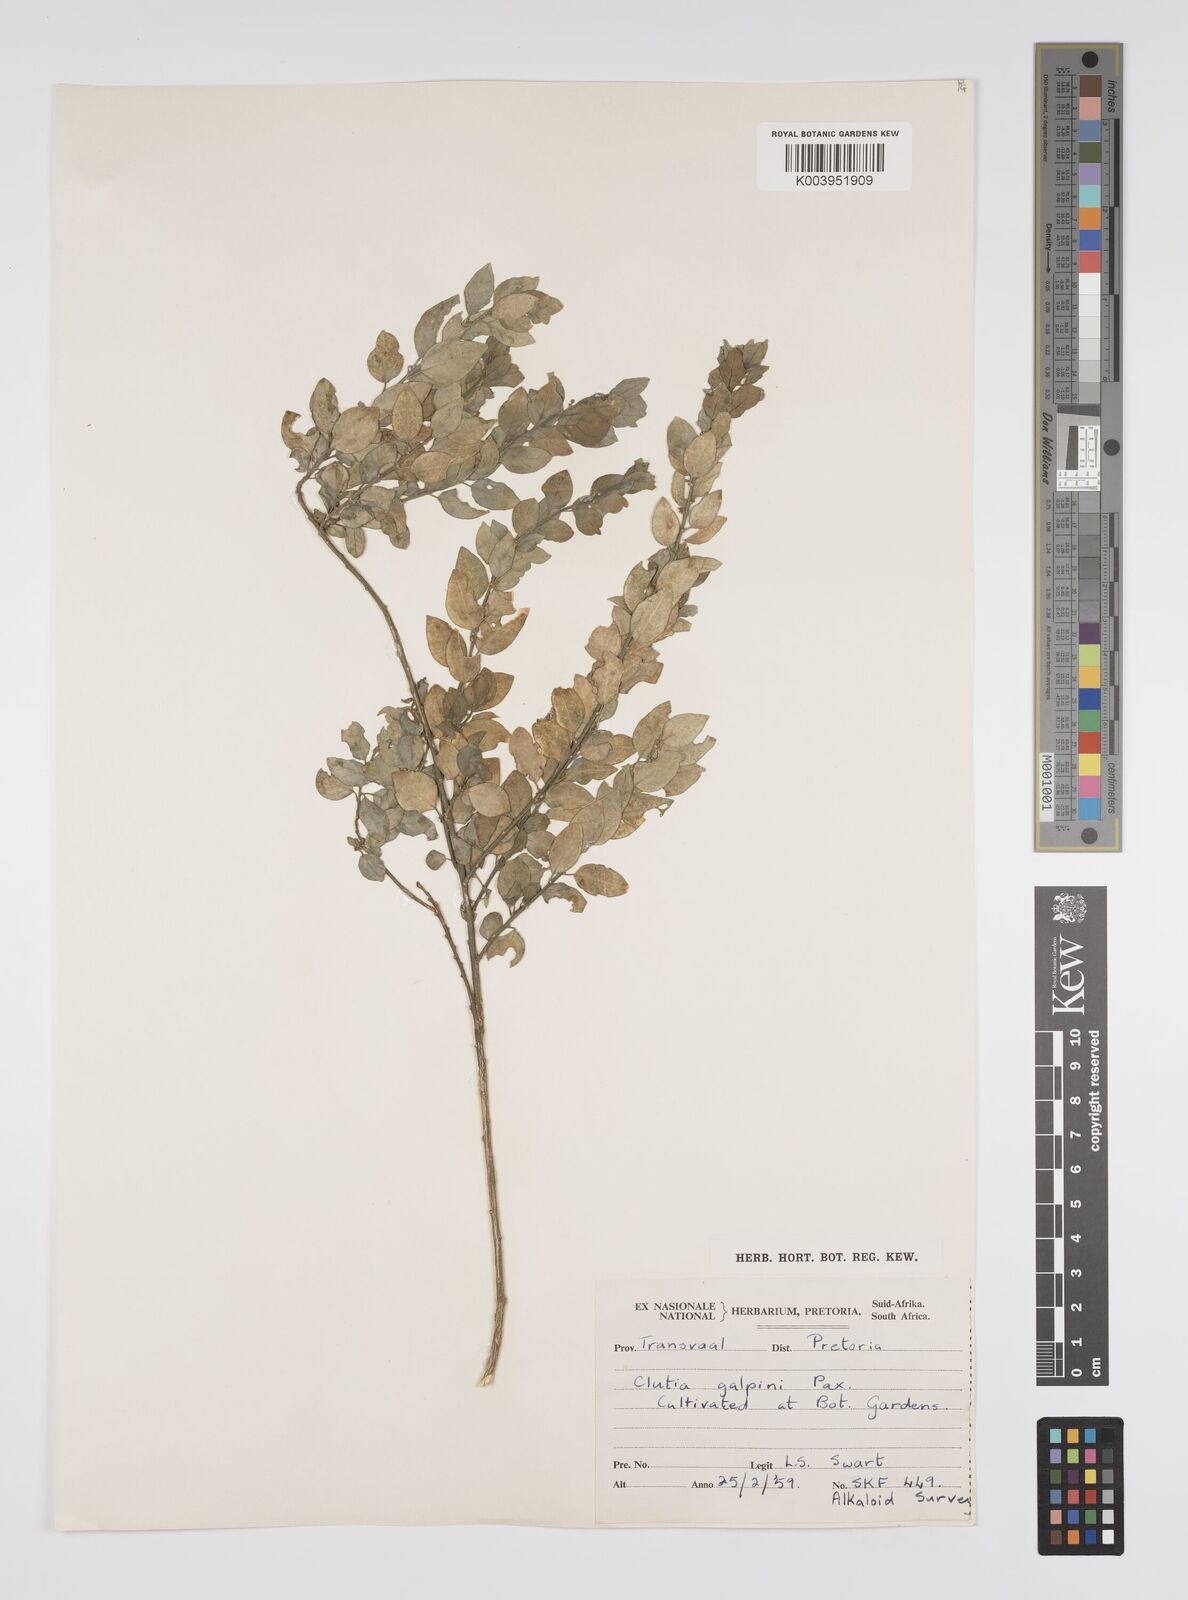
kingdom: Plantae
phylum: Tracheophyta
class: Magnoliopsida
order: Malpighiales
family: Peraceae
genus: Clutia
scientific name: Clutia galpinii
